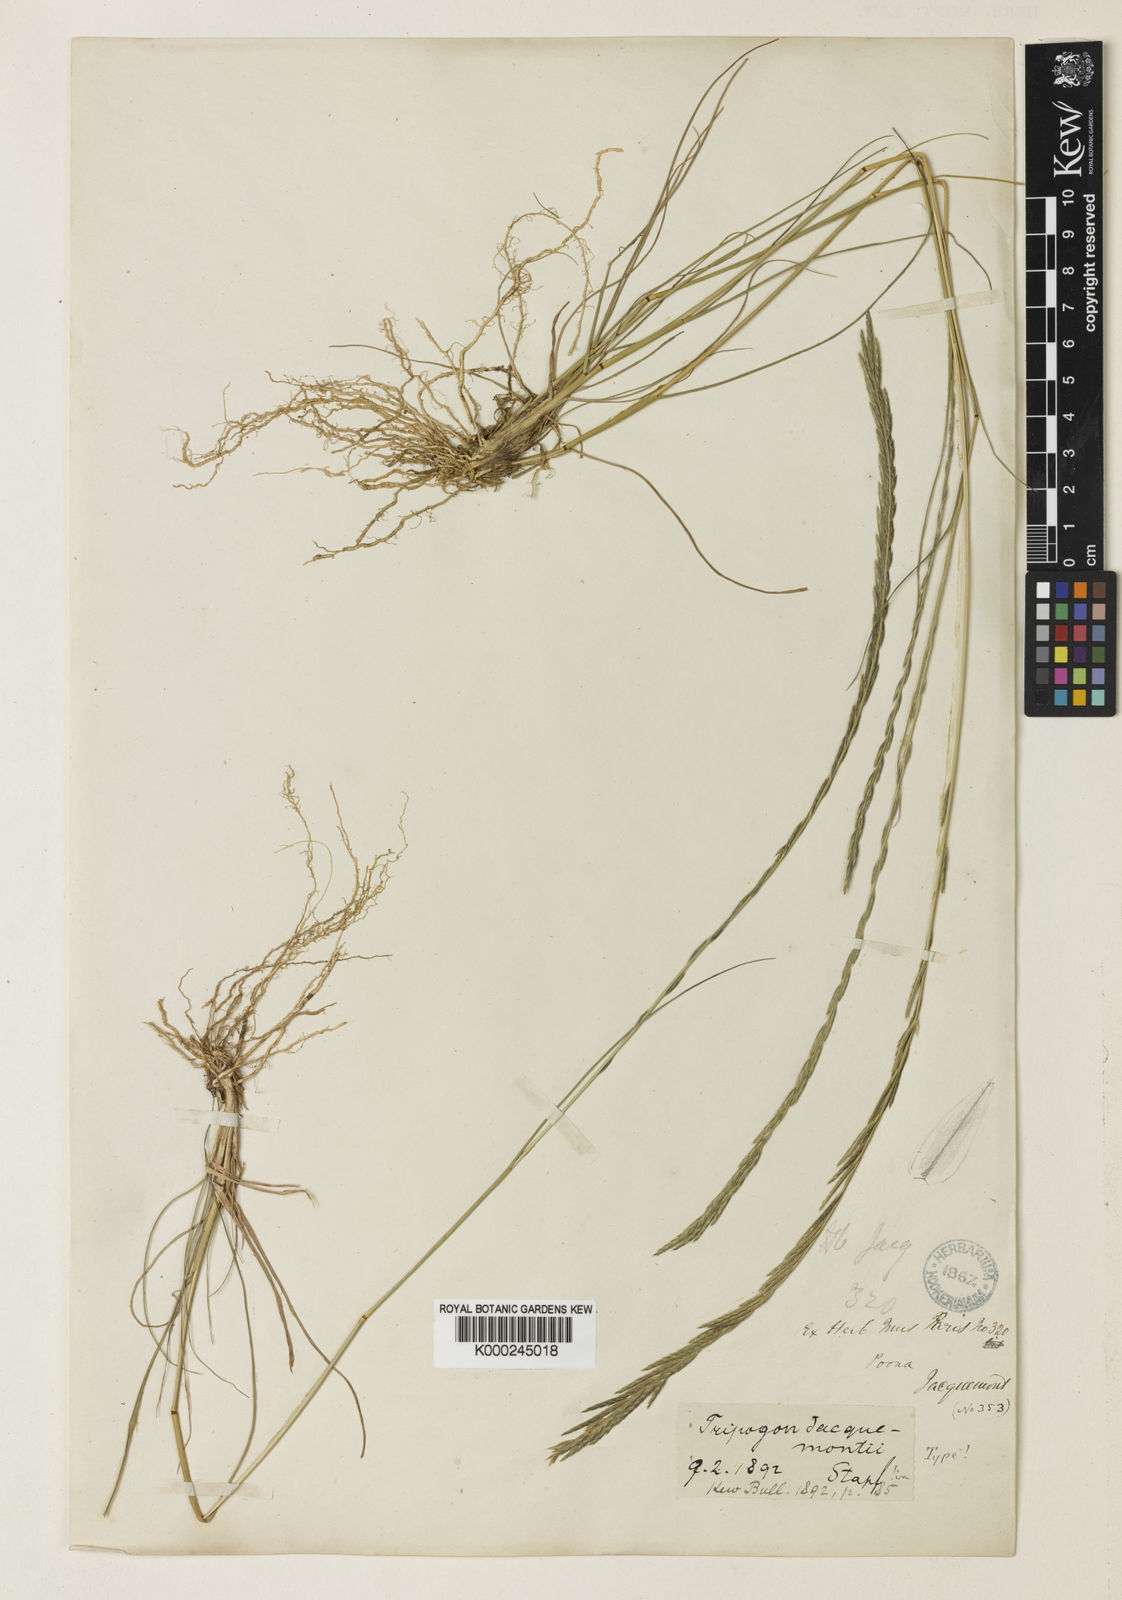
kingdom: Plantae
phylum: Tracheophyta
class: Liliopsida
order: Poales
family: Poaceae
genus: Tripogon
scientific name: Tripogon jacquemontii
